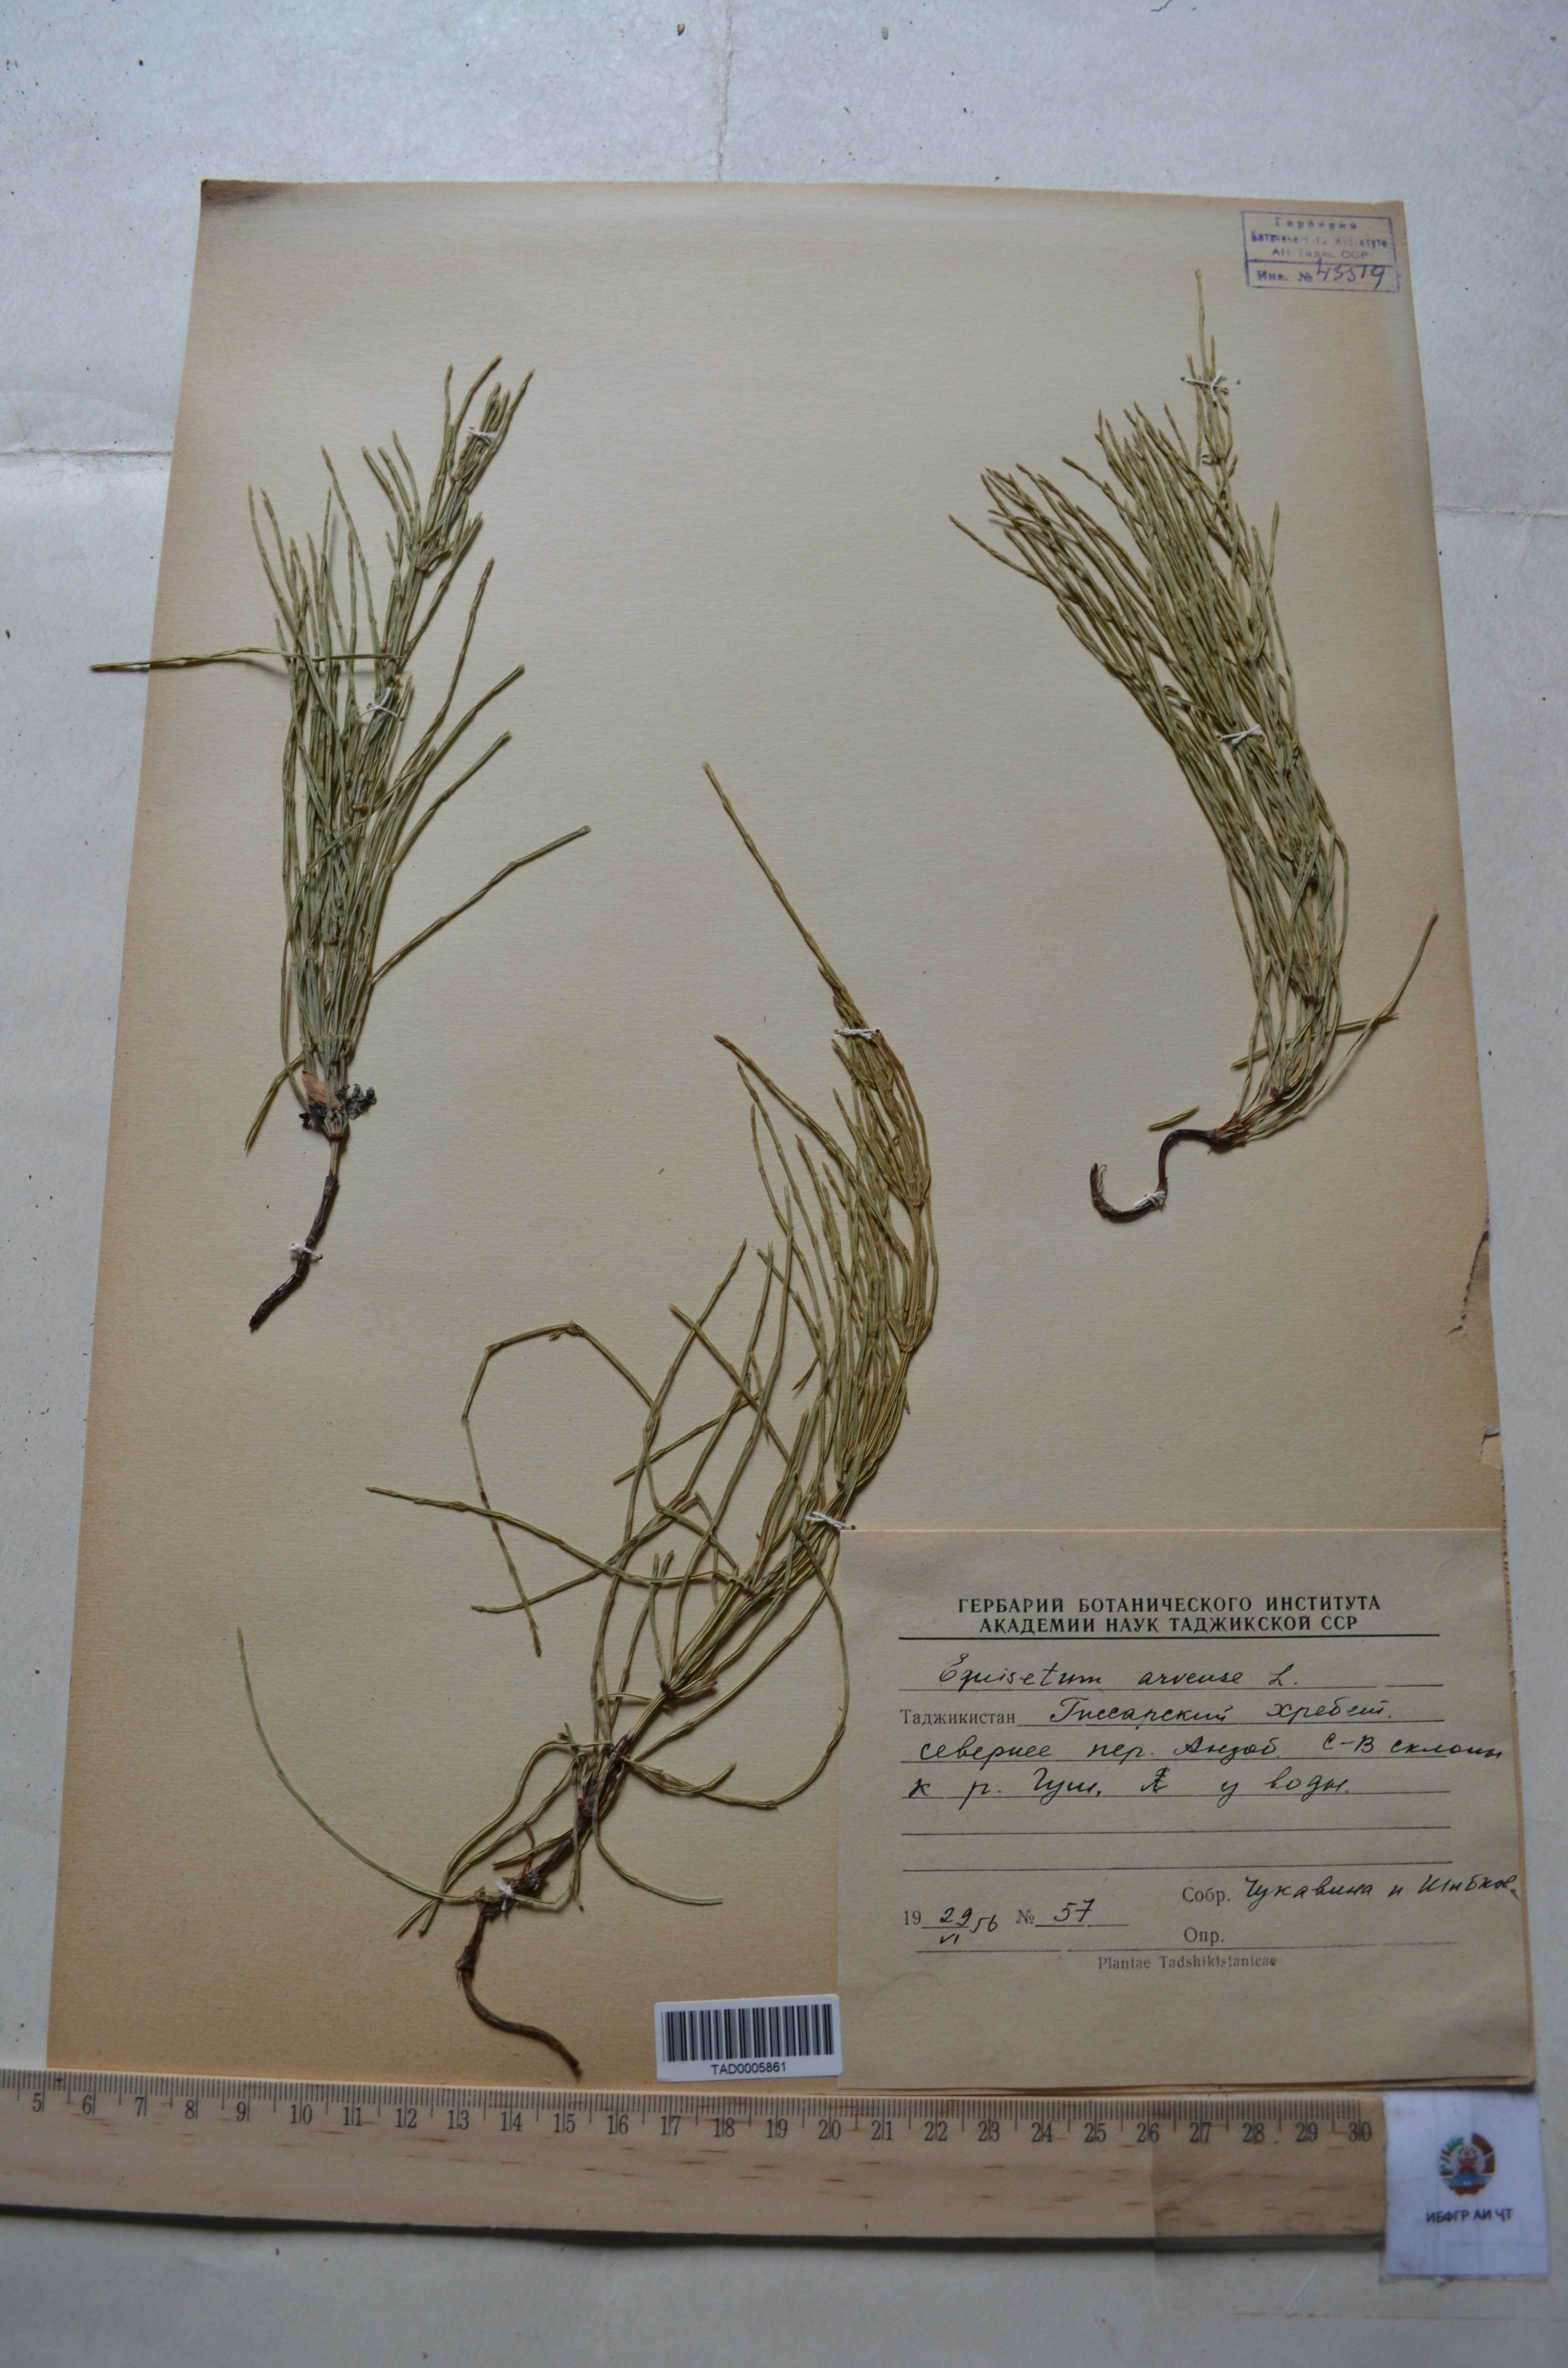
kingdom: Plantae
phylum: Tracheophyta
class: Polypodiopsida
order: Equisetales
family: Equisetaceae
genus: Equisetum
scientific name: Equisetum arvense
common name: Field horsetail
